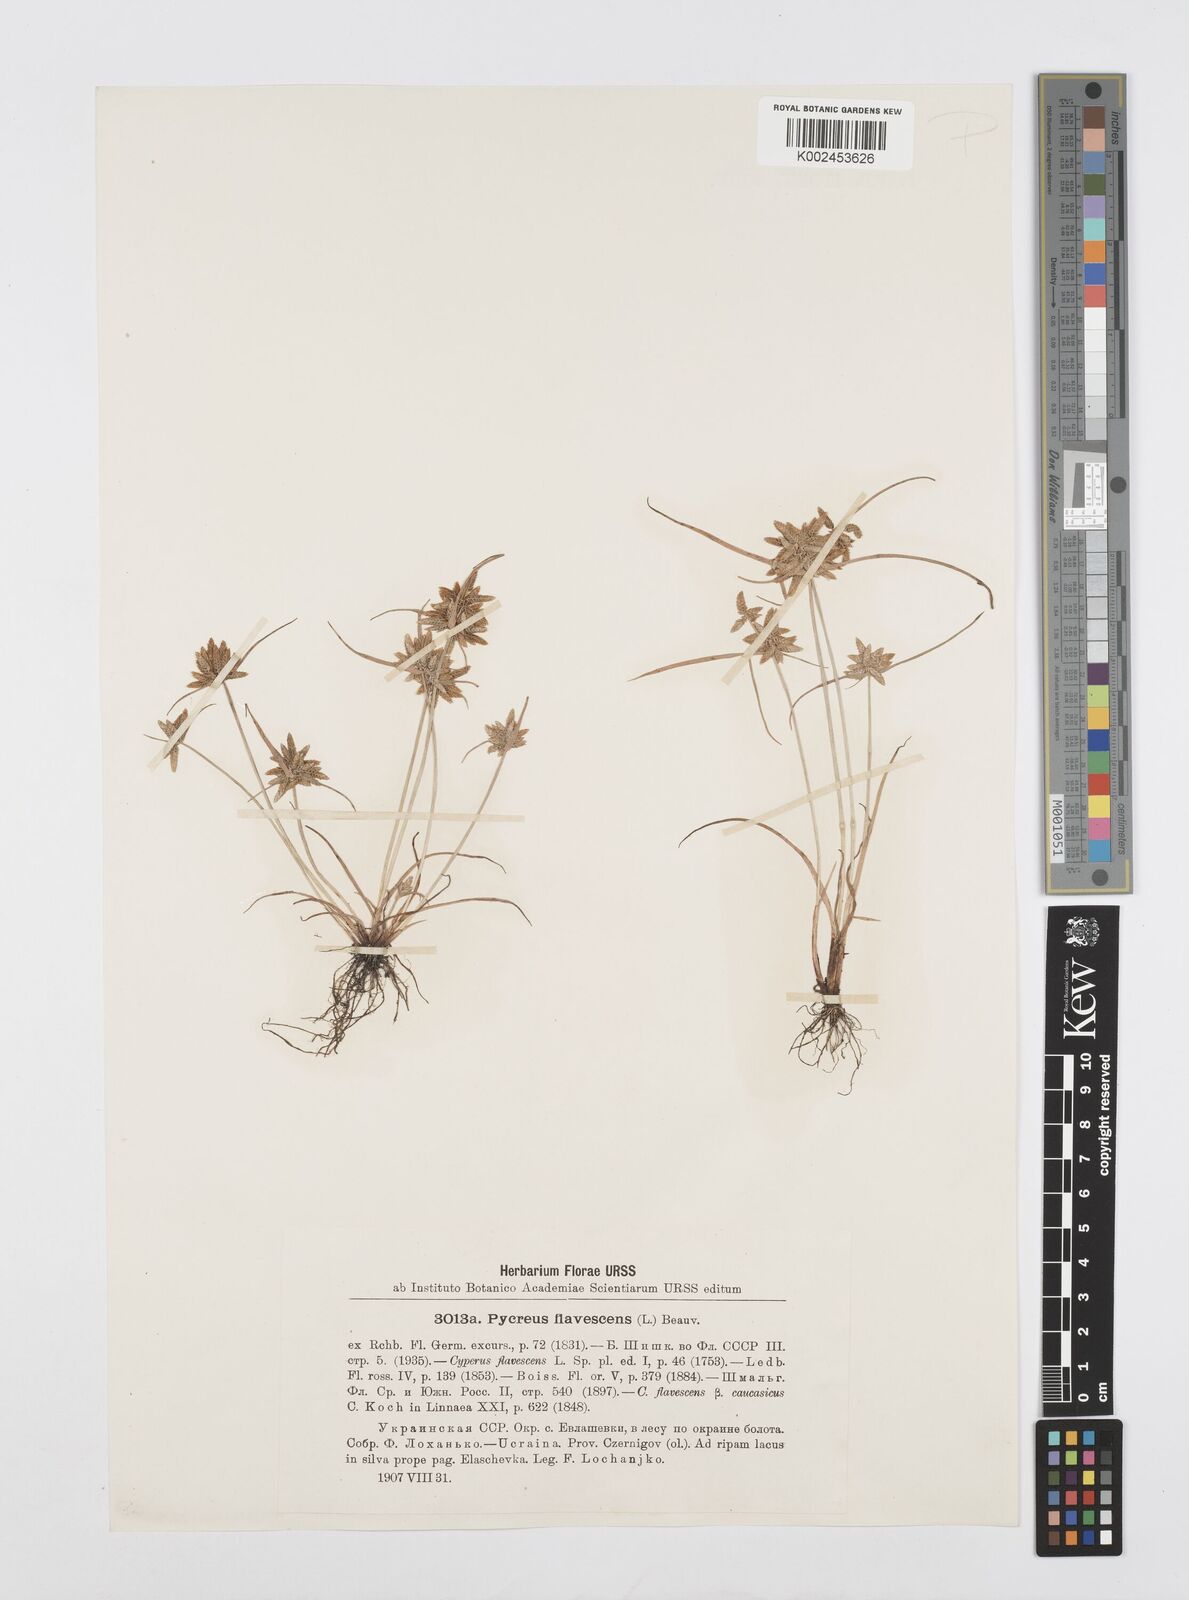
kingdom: Plantae
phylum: Tracheophyta
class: Liliopsida
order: Poales
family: Cyperaceae
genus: Cyperus
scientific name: Cyperus flavescens
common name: Yellow galingale
